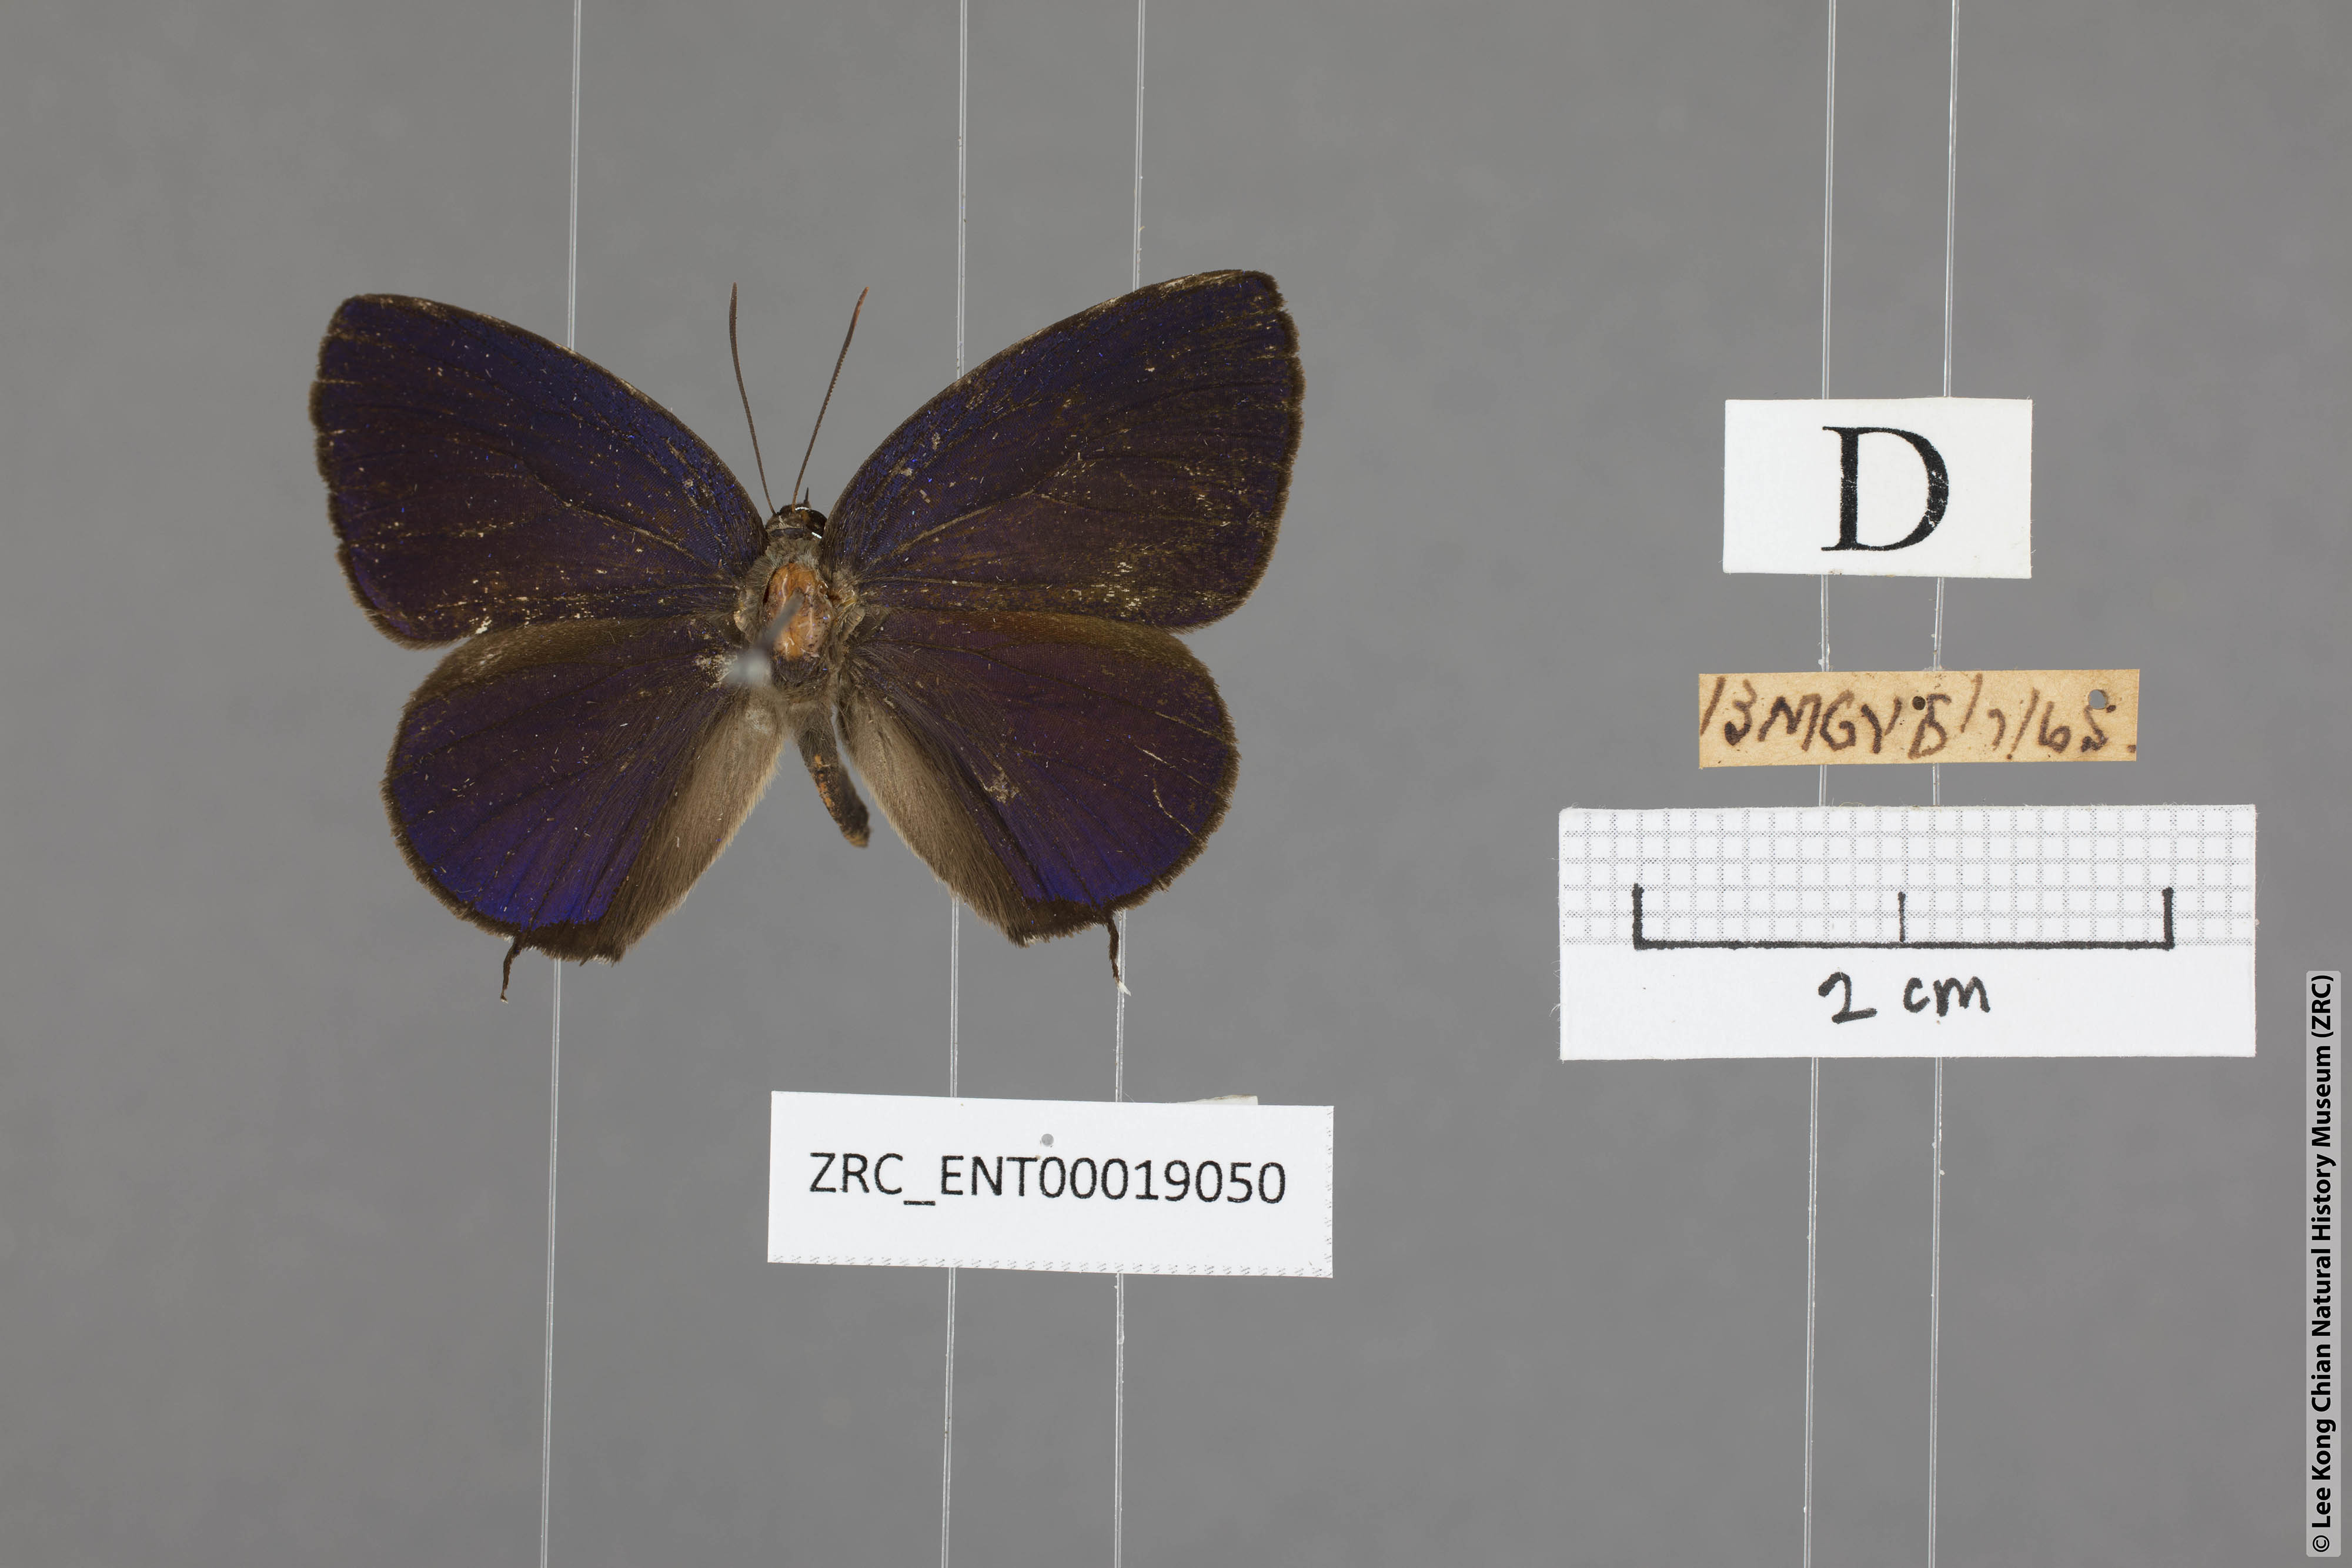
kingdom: Animalia
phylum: Arthropoda
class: Insecta
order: Lepidoptera
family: Lycaenidae
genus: Arhopala
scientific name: Arhopala agrata
